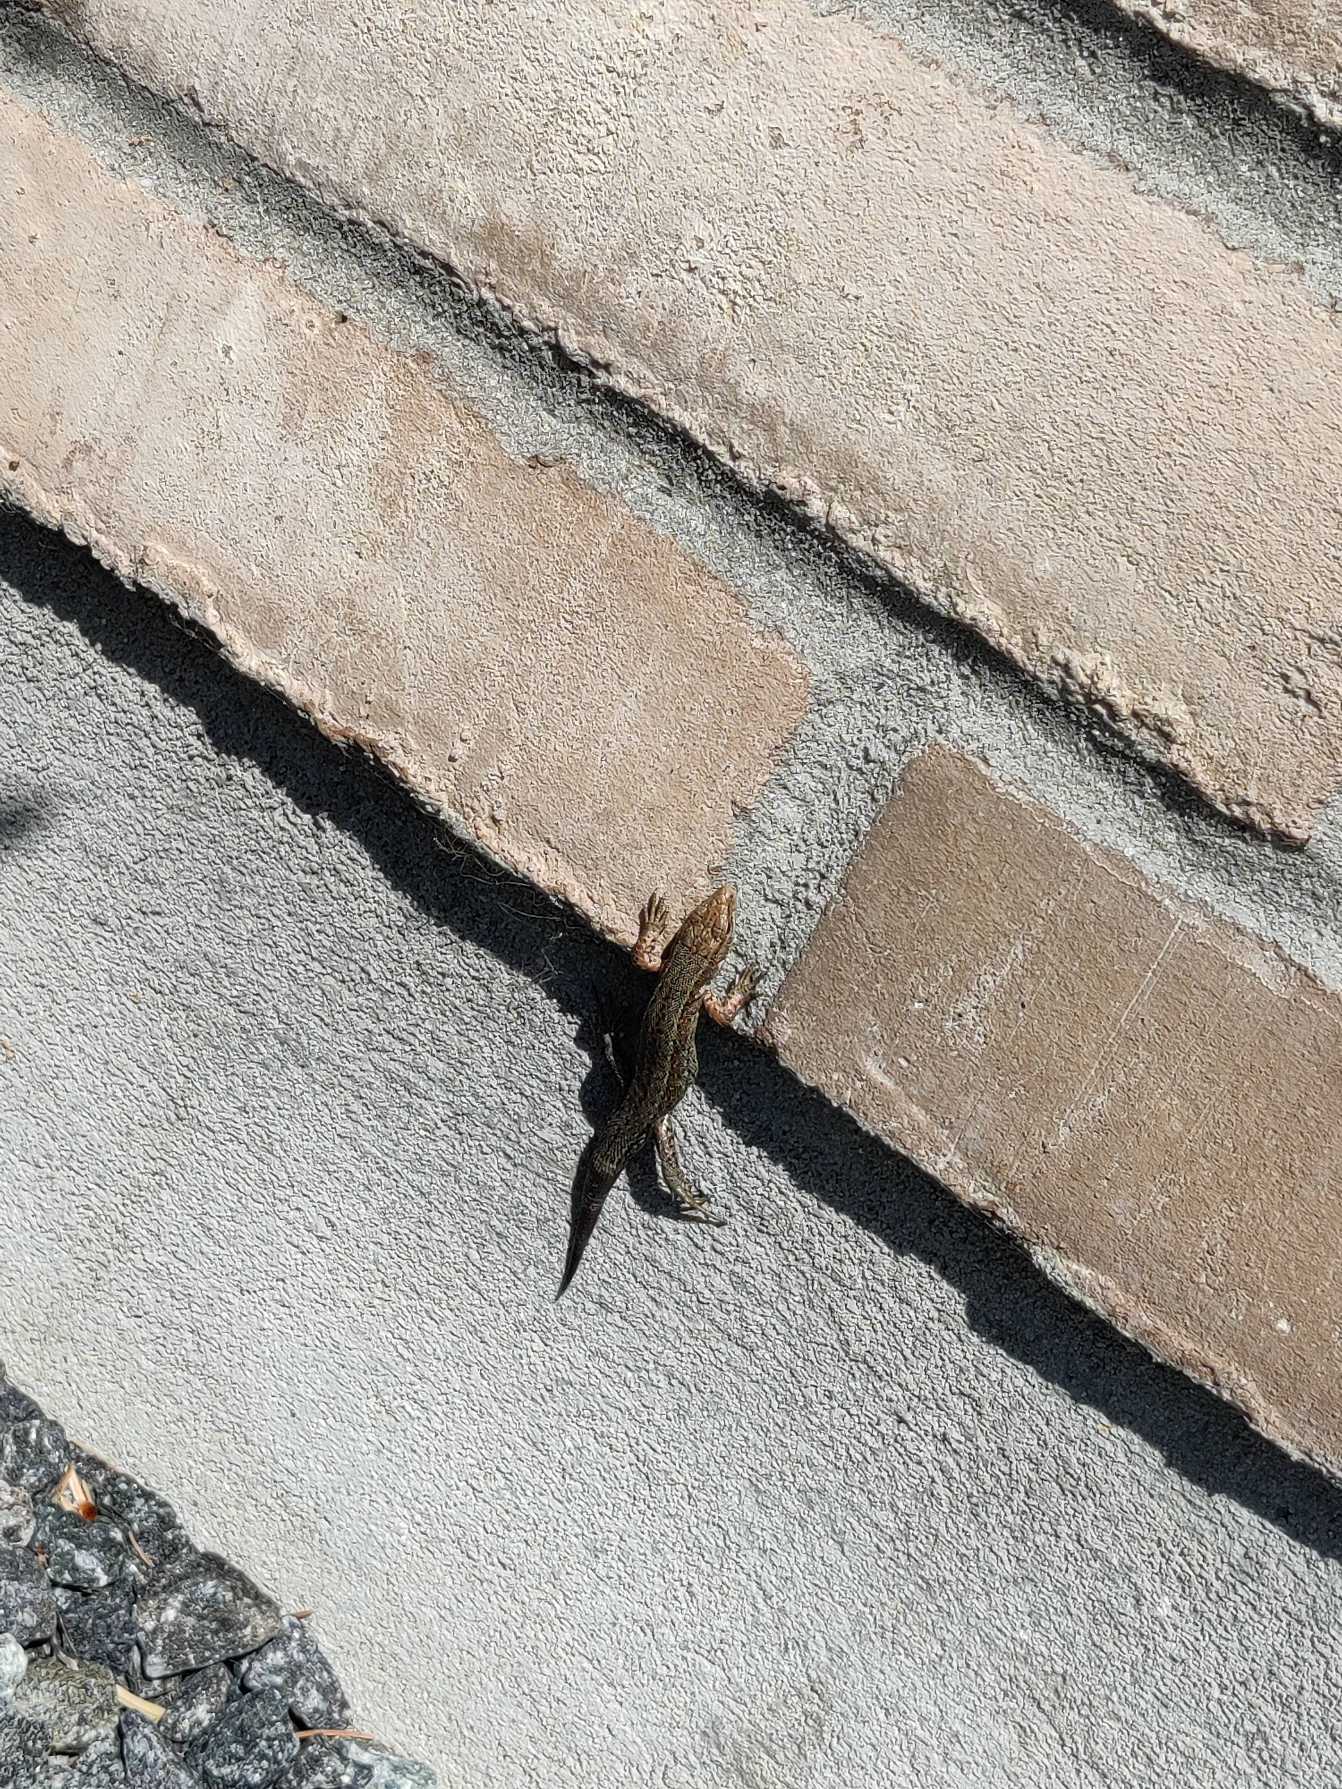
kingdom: Animalia
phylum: Chordata
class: Squamata
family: Lacertidae
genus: Zootoca
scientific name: Zootoca vivipara
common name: Skovfirben
